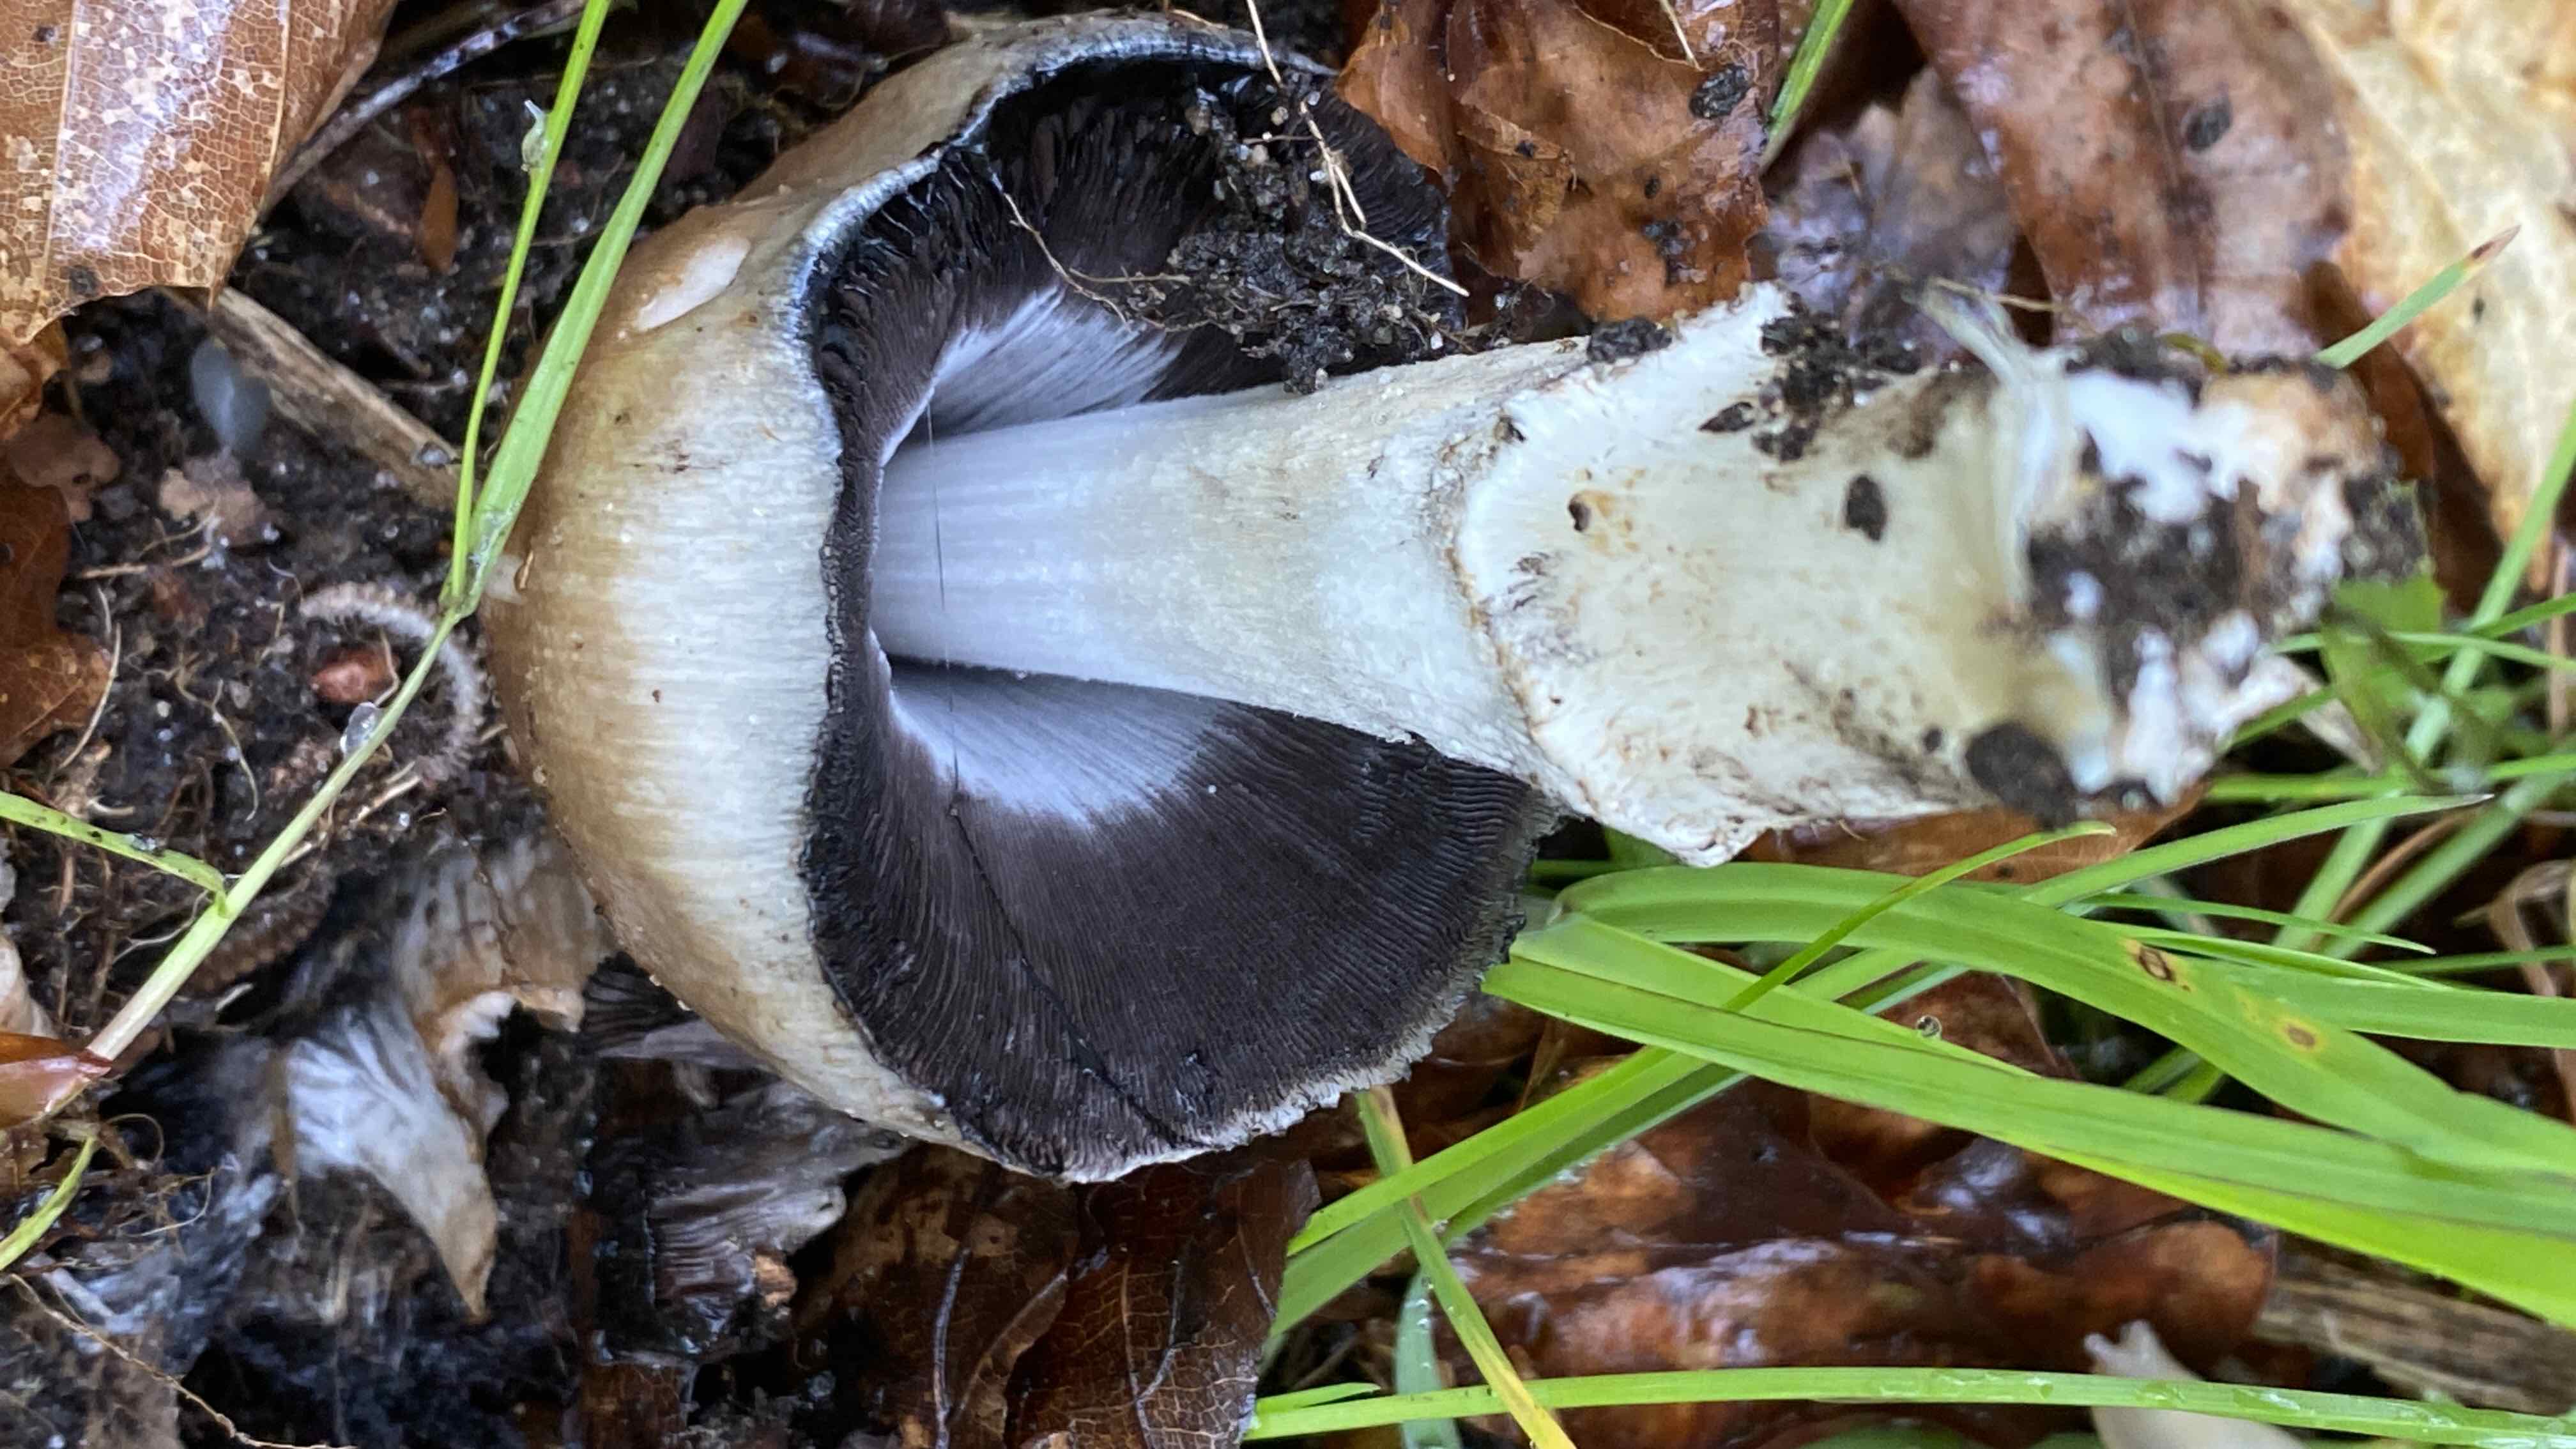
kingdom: Fungi
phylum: Basidiomycota
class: Agaricomycetes
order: Agaricales
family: Psathyrellaceae
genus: Coprinopsis
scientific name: Coprinopsis atramentaria
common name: almindelig blækhat
